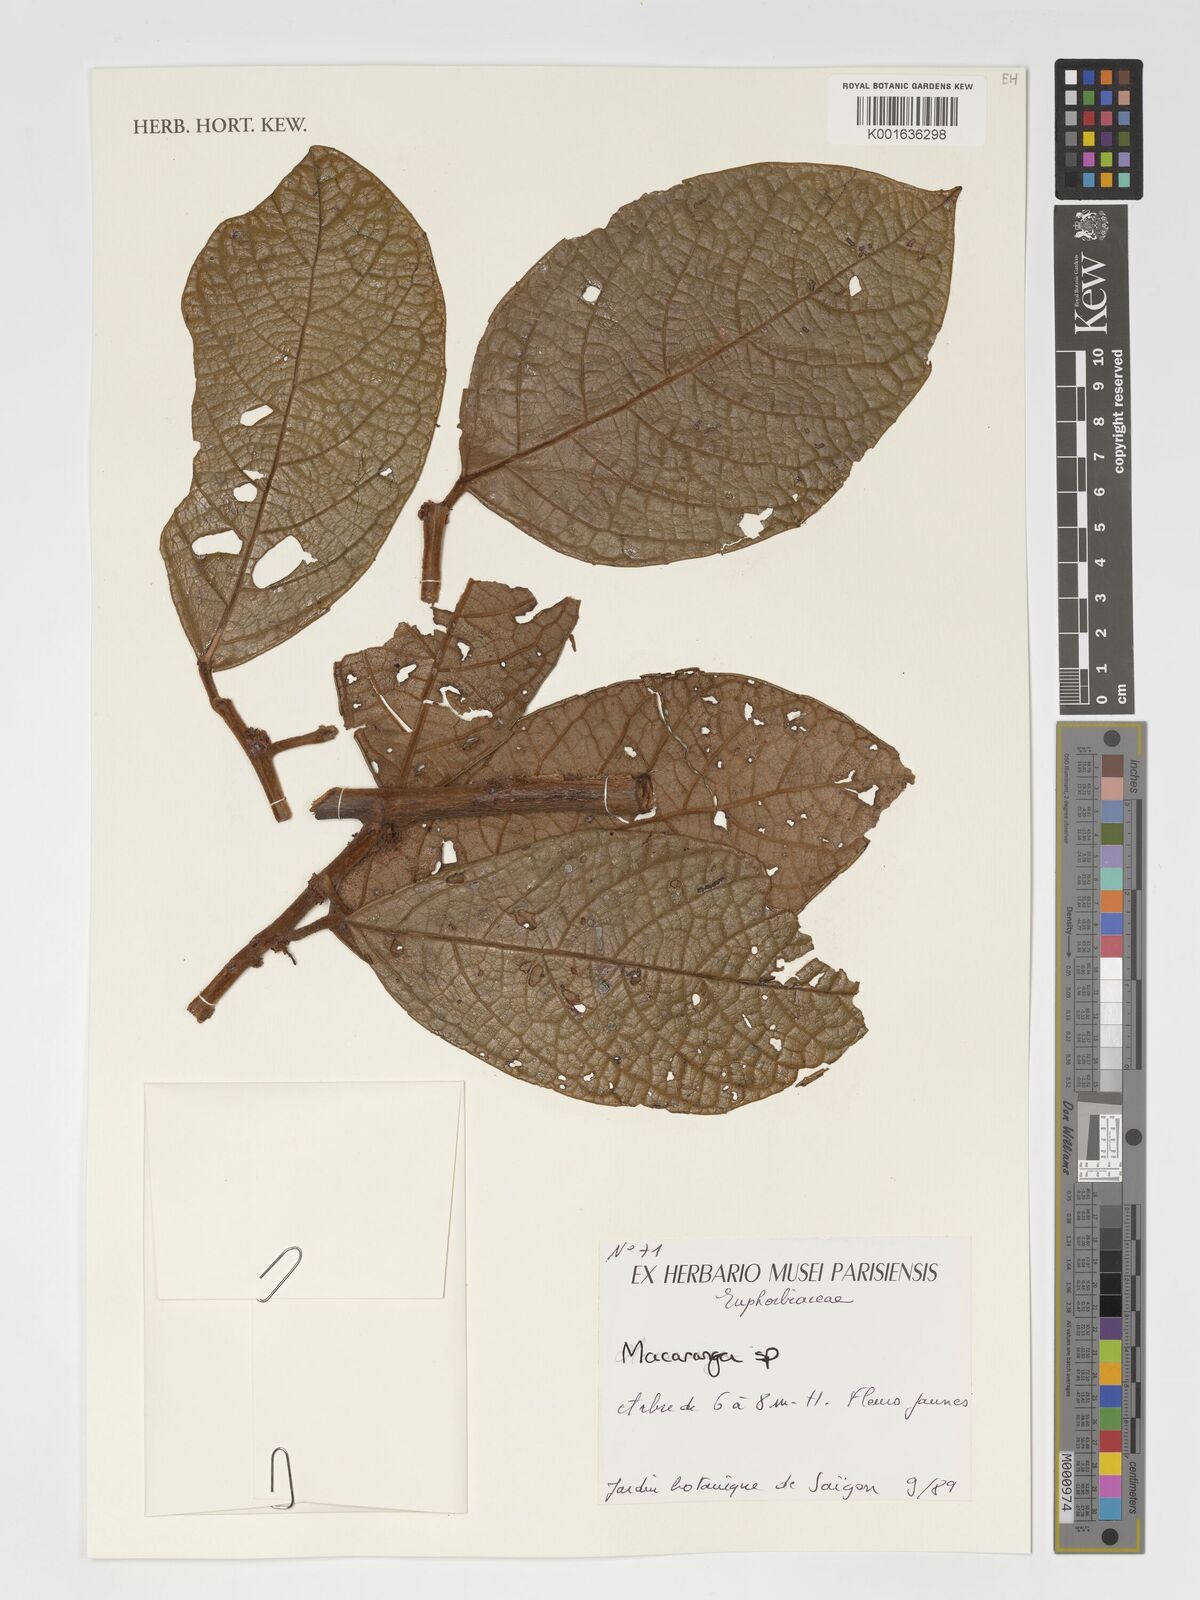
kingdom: Plantae
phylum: Tracheophyta
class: Magnoliopsida
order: Malpighiales
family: Euphorbiaceae
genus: Macaranga
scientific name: Macaranga
